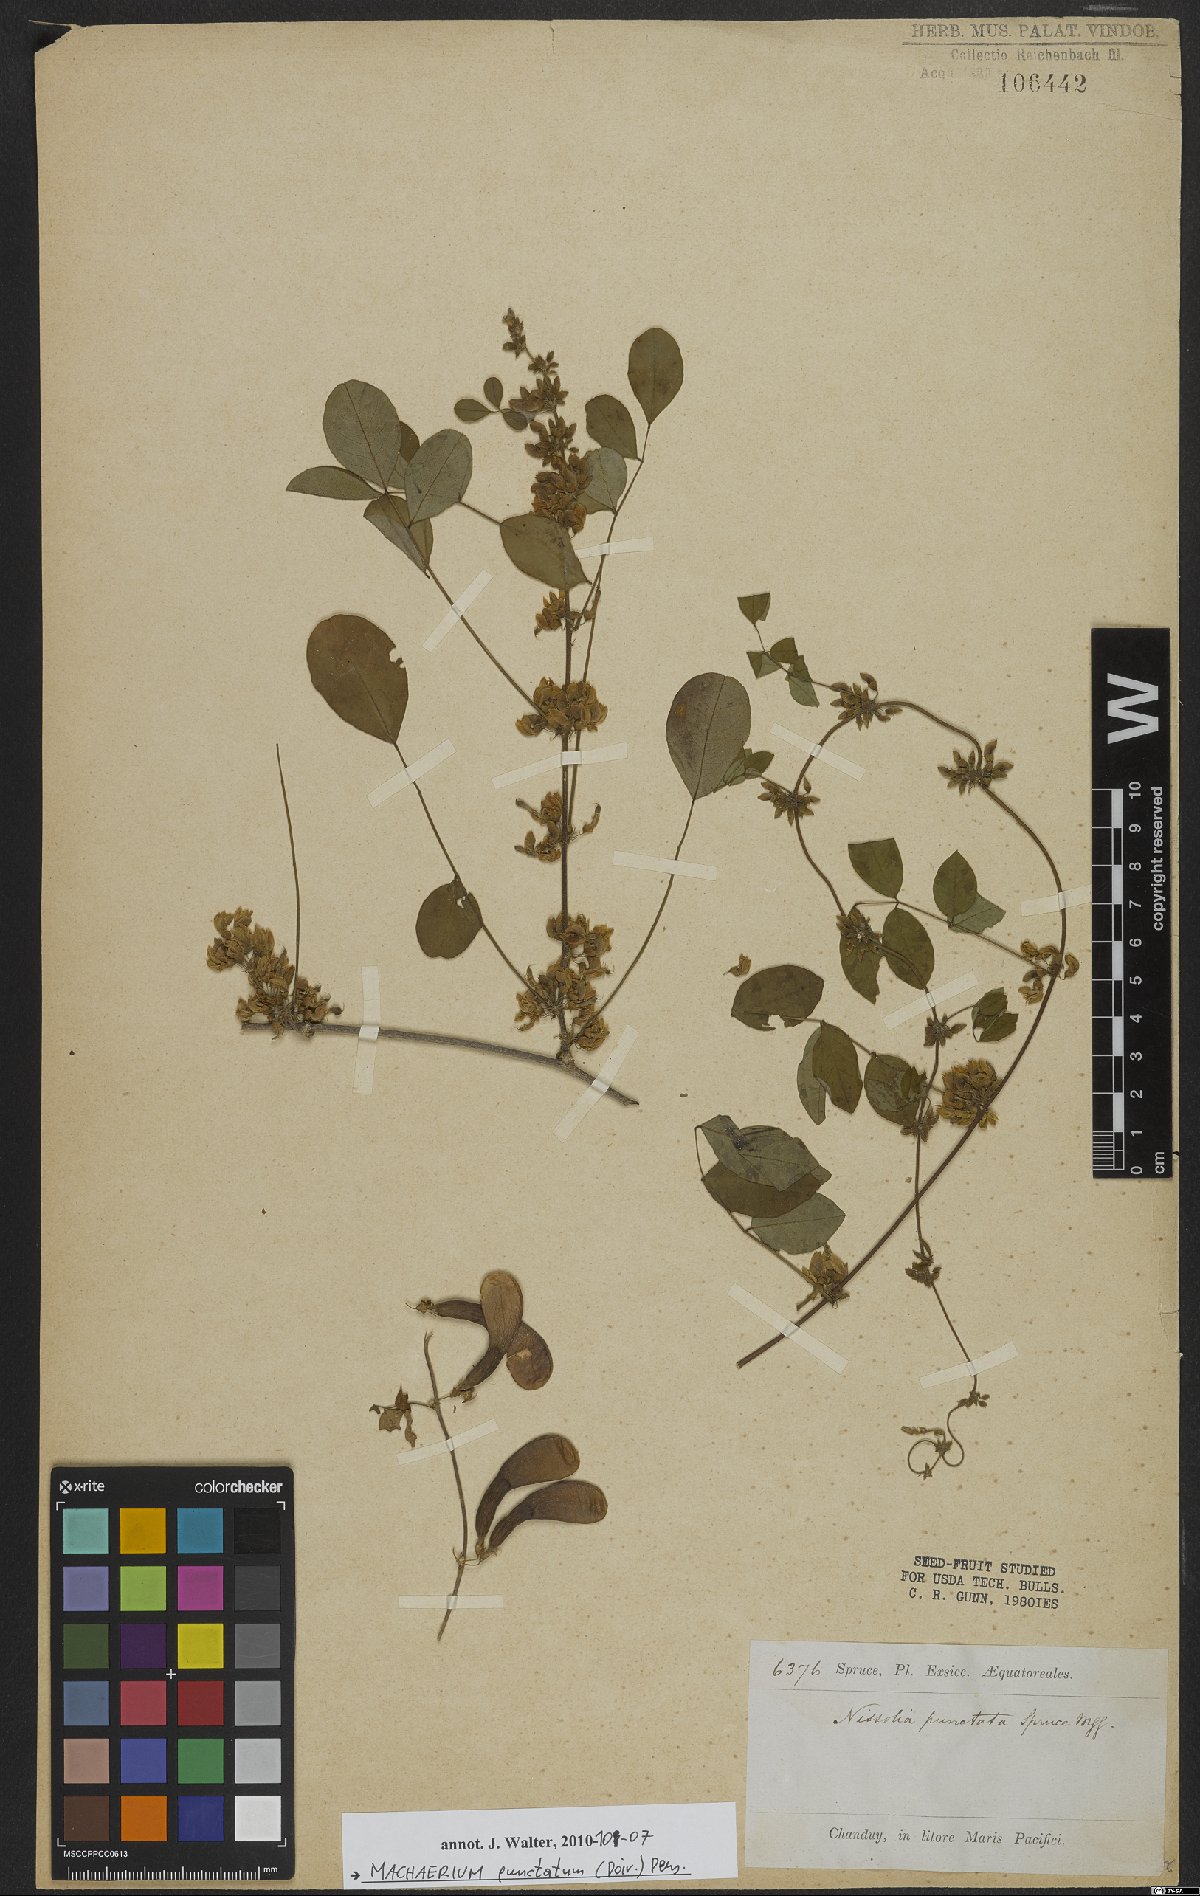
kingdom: Plantae
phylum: Tracheophyta
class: Magnoliopsida
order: Fabales
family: Fabaceae
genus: Machaerium
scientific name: Machaerium punctatum
